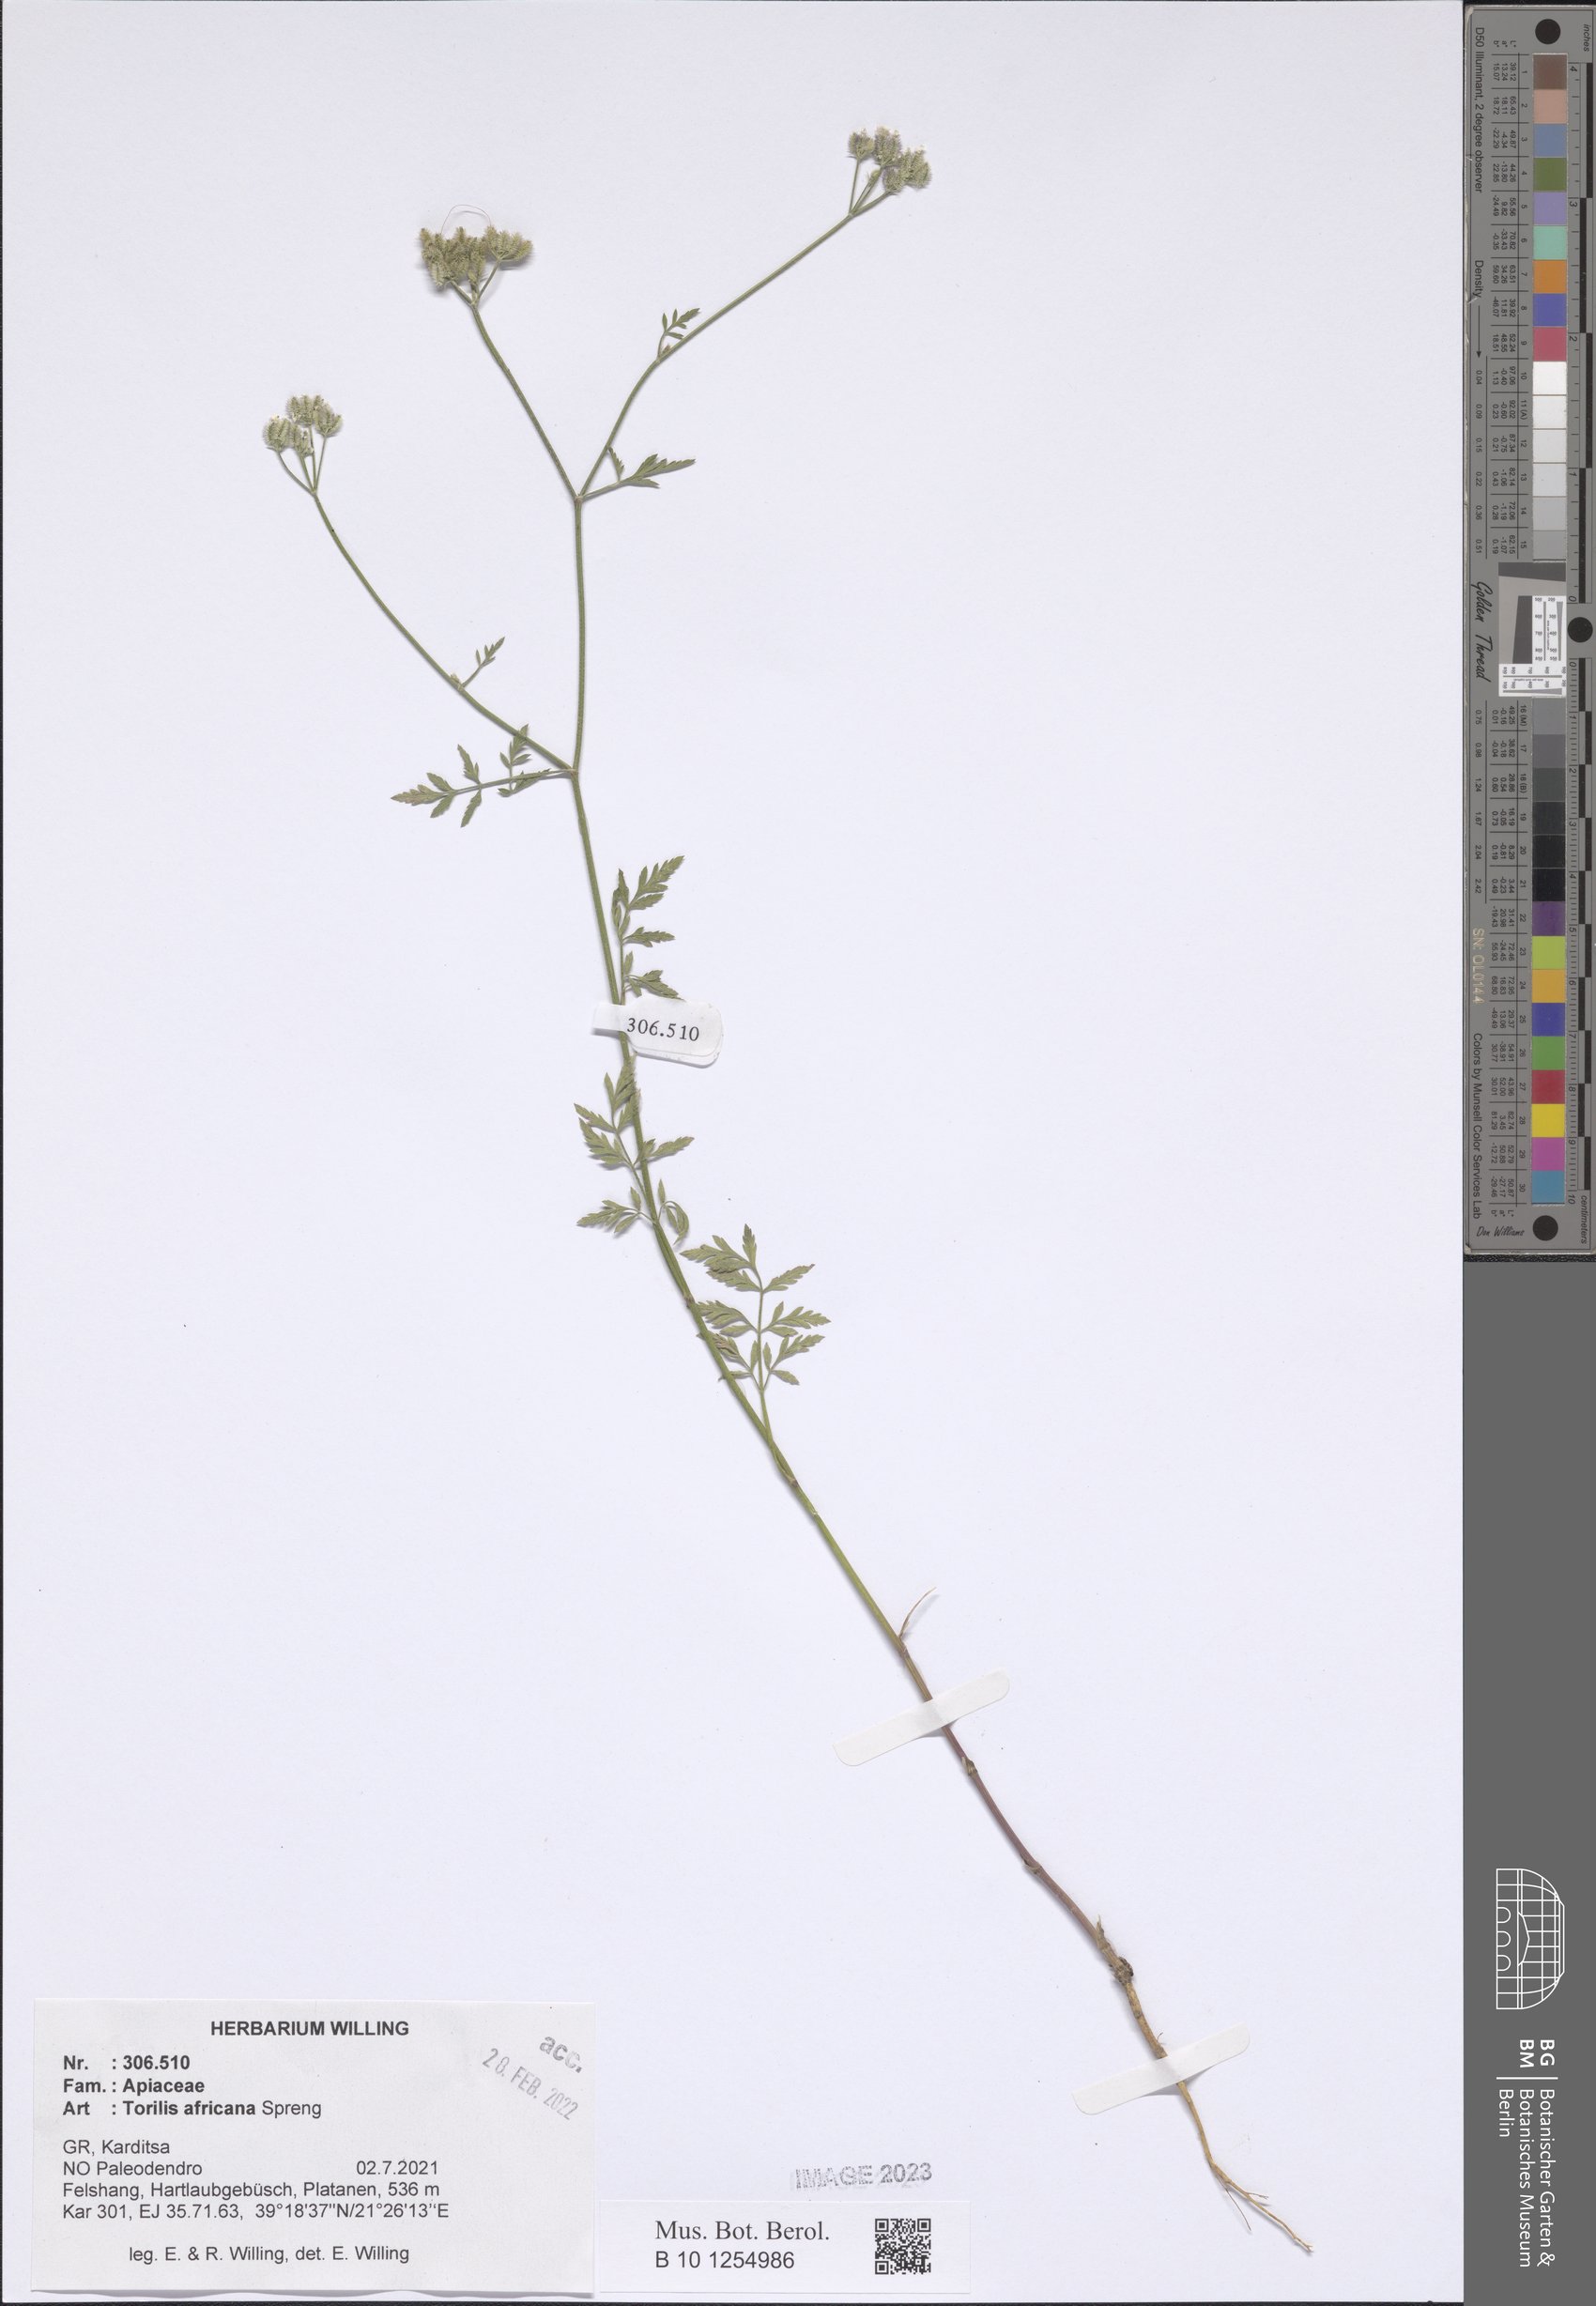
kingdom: Plantae
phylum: Tracheophyta
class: Magnoliopsida
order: Apiales
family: Apiaceae
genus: Torilis
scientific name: Torilis africana
